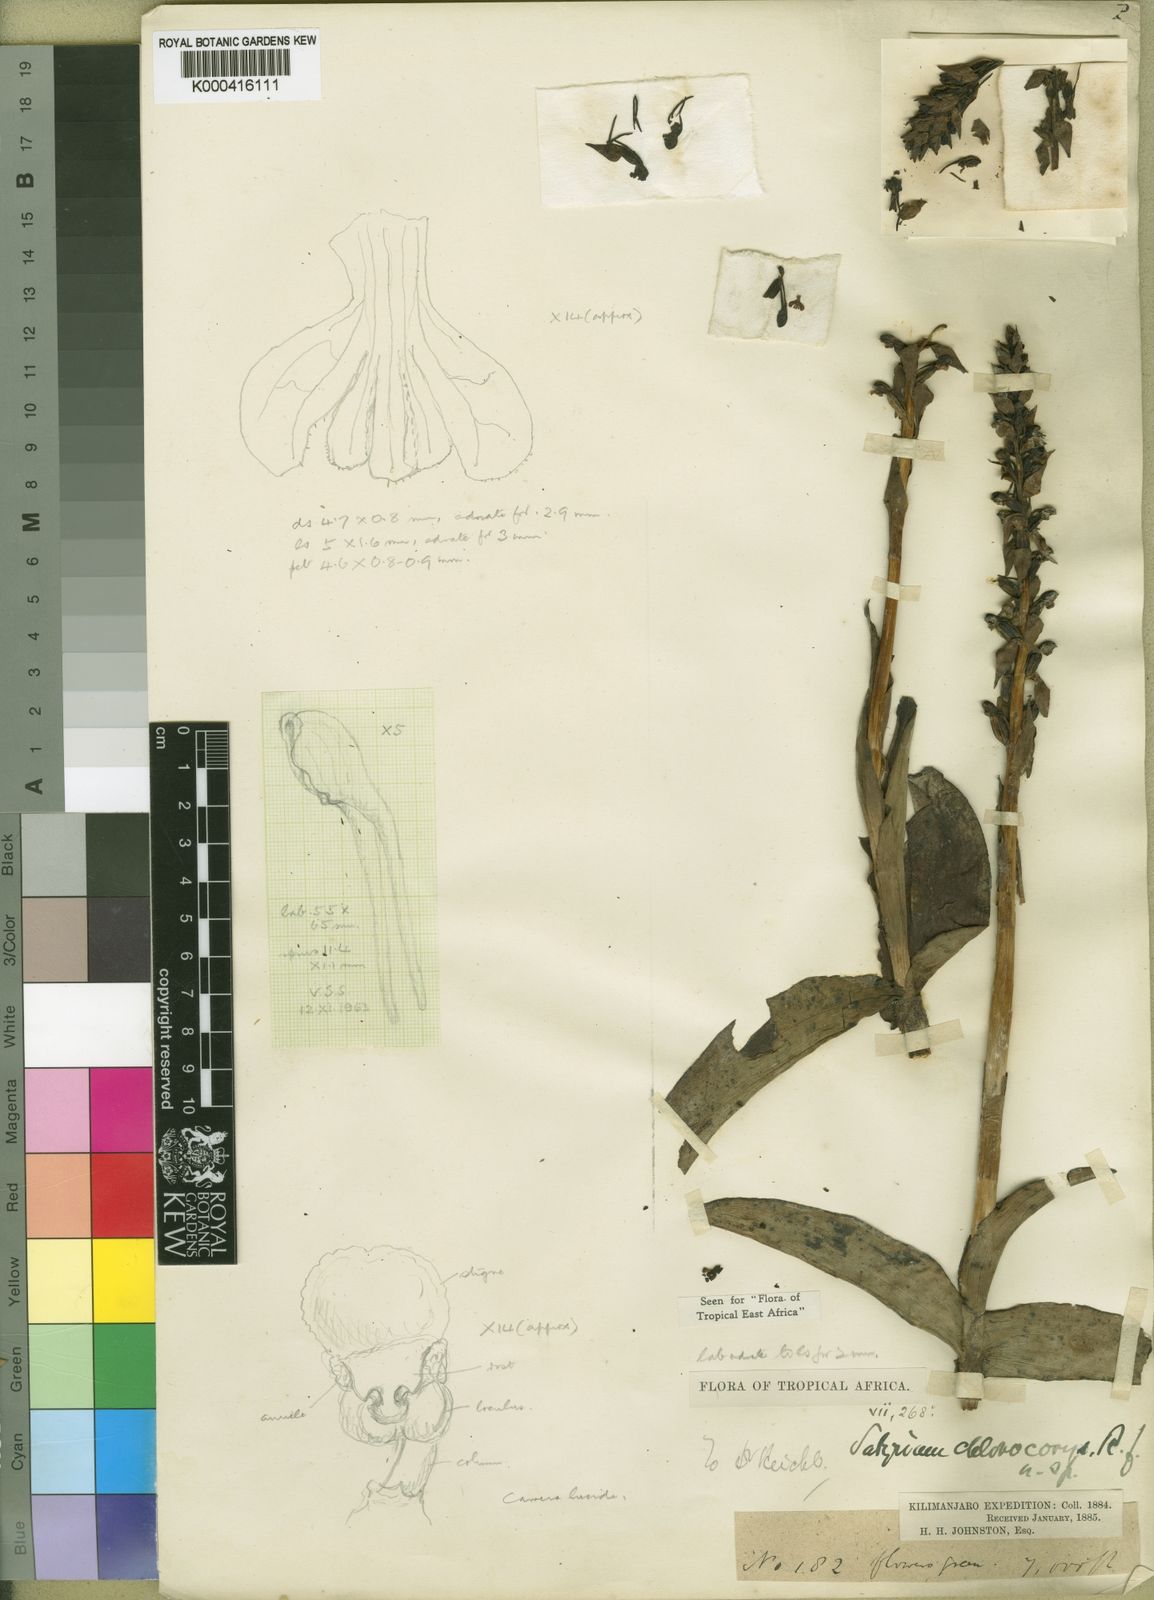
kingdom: Plantae
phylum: Tracheophyta
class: Liliopsida
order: Asparagales
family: Orchidaceae
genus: Satyrium
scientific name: Satyrium chlorocorys
